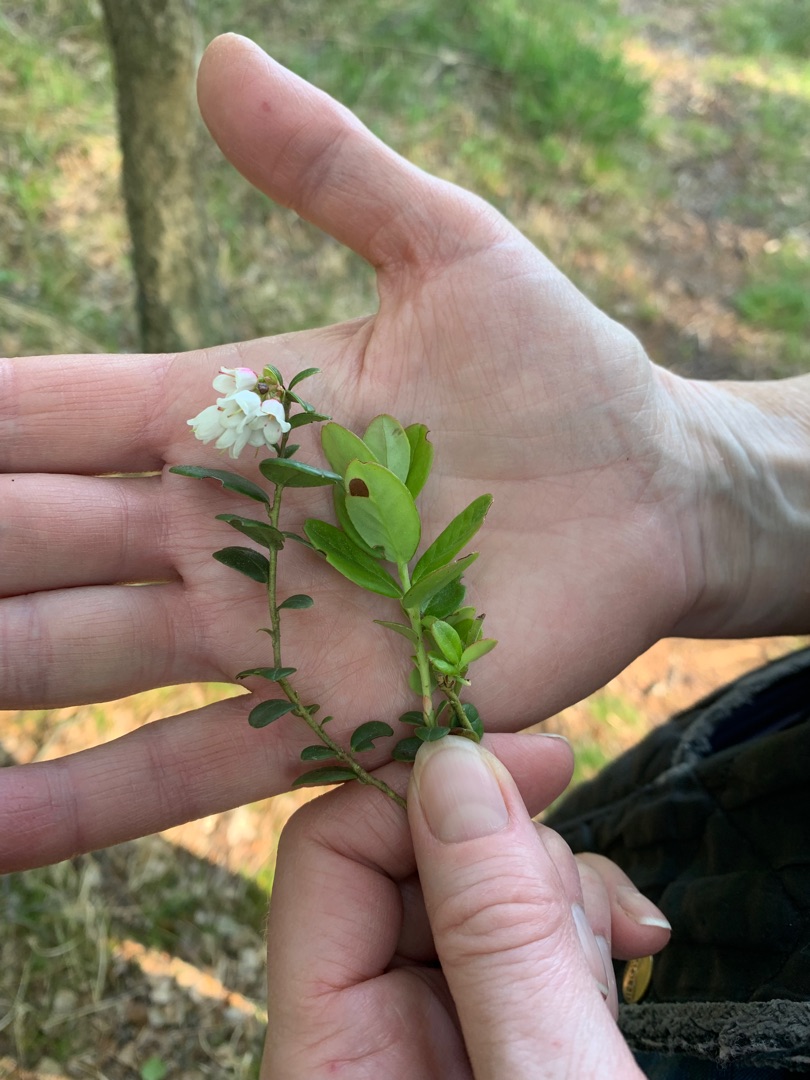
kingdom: Plantae
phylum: Tracheophyta
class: Magnoliopsida
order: Ericales
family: Ericaceae
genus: Vaccinium
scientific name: Vaccinium vitis-idaea
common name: Tyttebær
